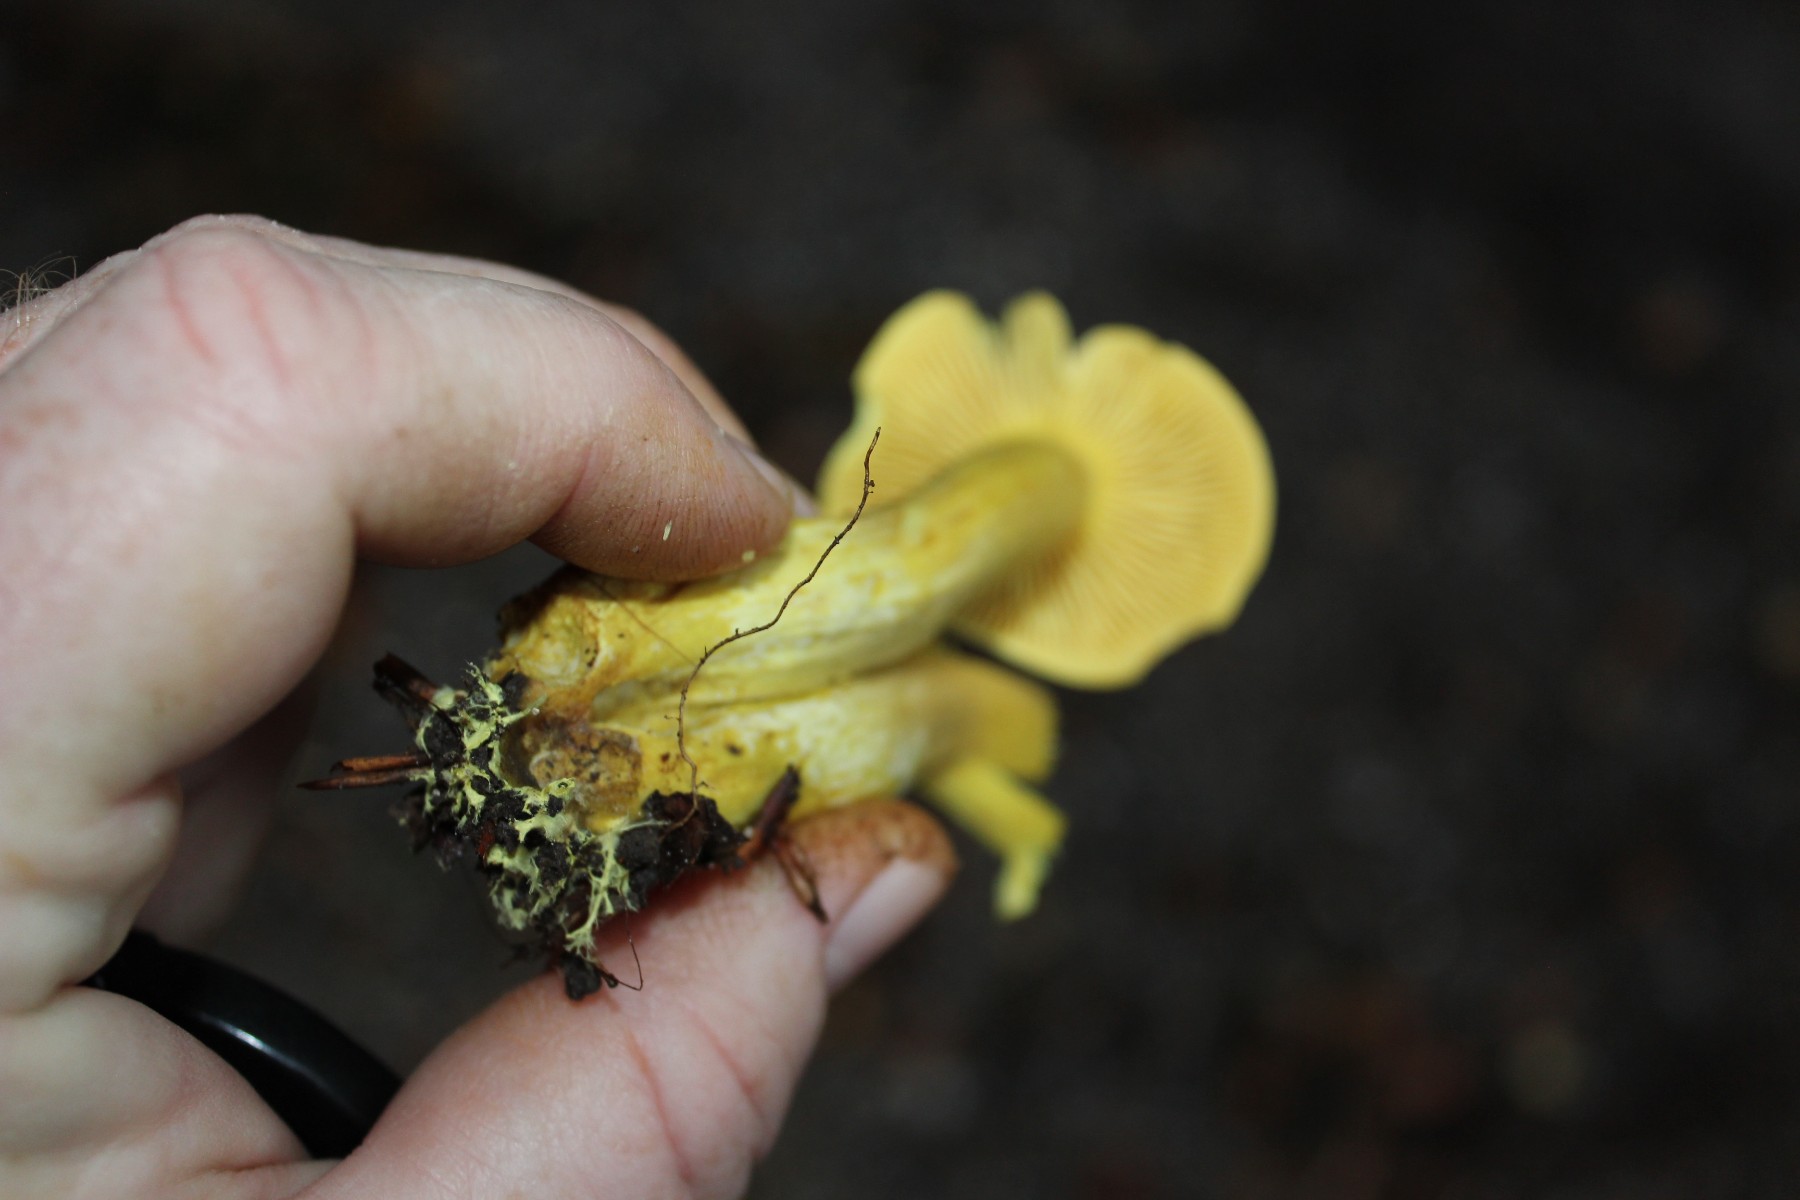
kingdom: Fungi
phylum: Basidiomycota
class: Agaricomycetes
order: Agaricales
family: Tricholomataceae
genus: Tricholoma
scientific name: Tricholoma sulphureum
